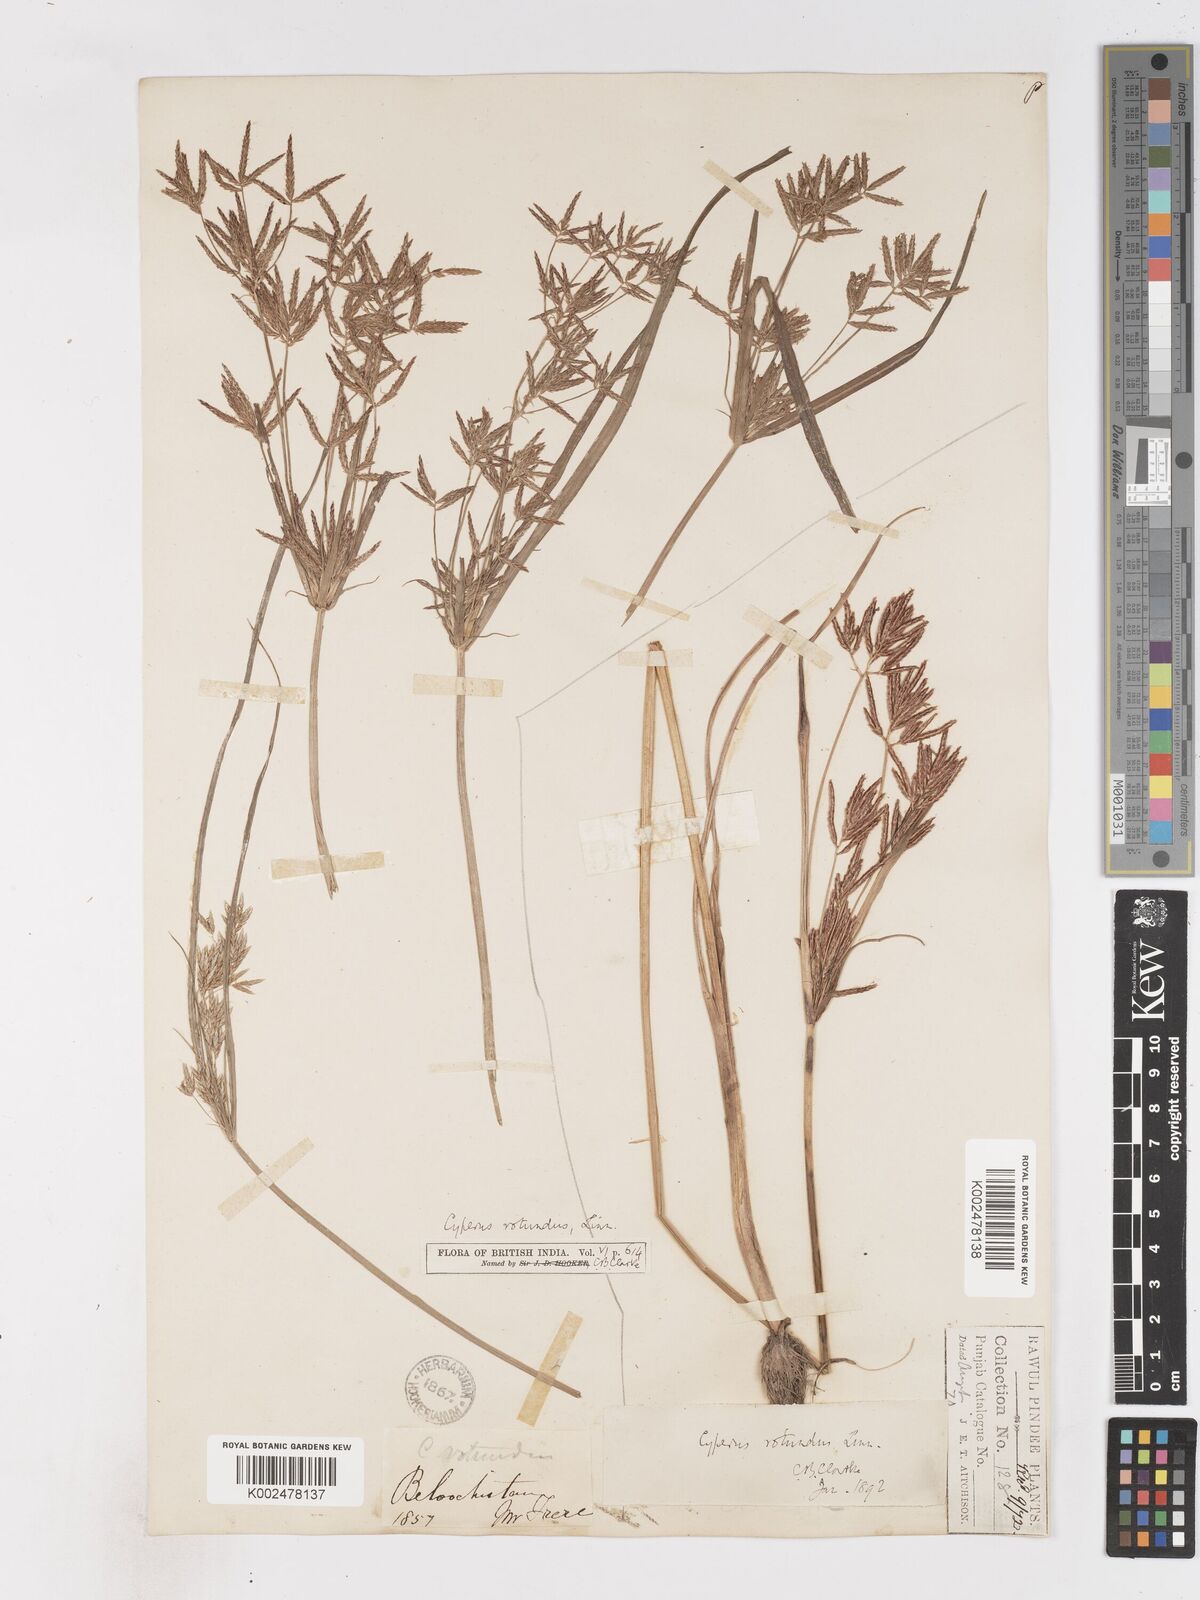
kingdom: Plantae
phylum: Tracheophyta
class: Liliopsida
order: Poales
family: Cyperaceae
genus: Cyperus
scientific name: Cyperus rotundus
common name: Nutgrass
